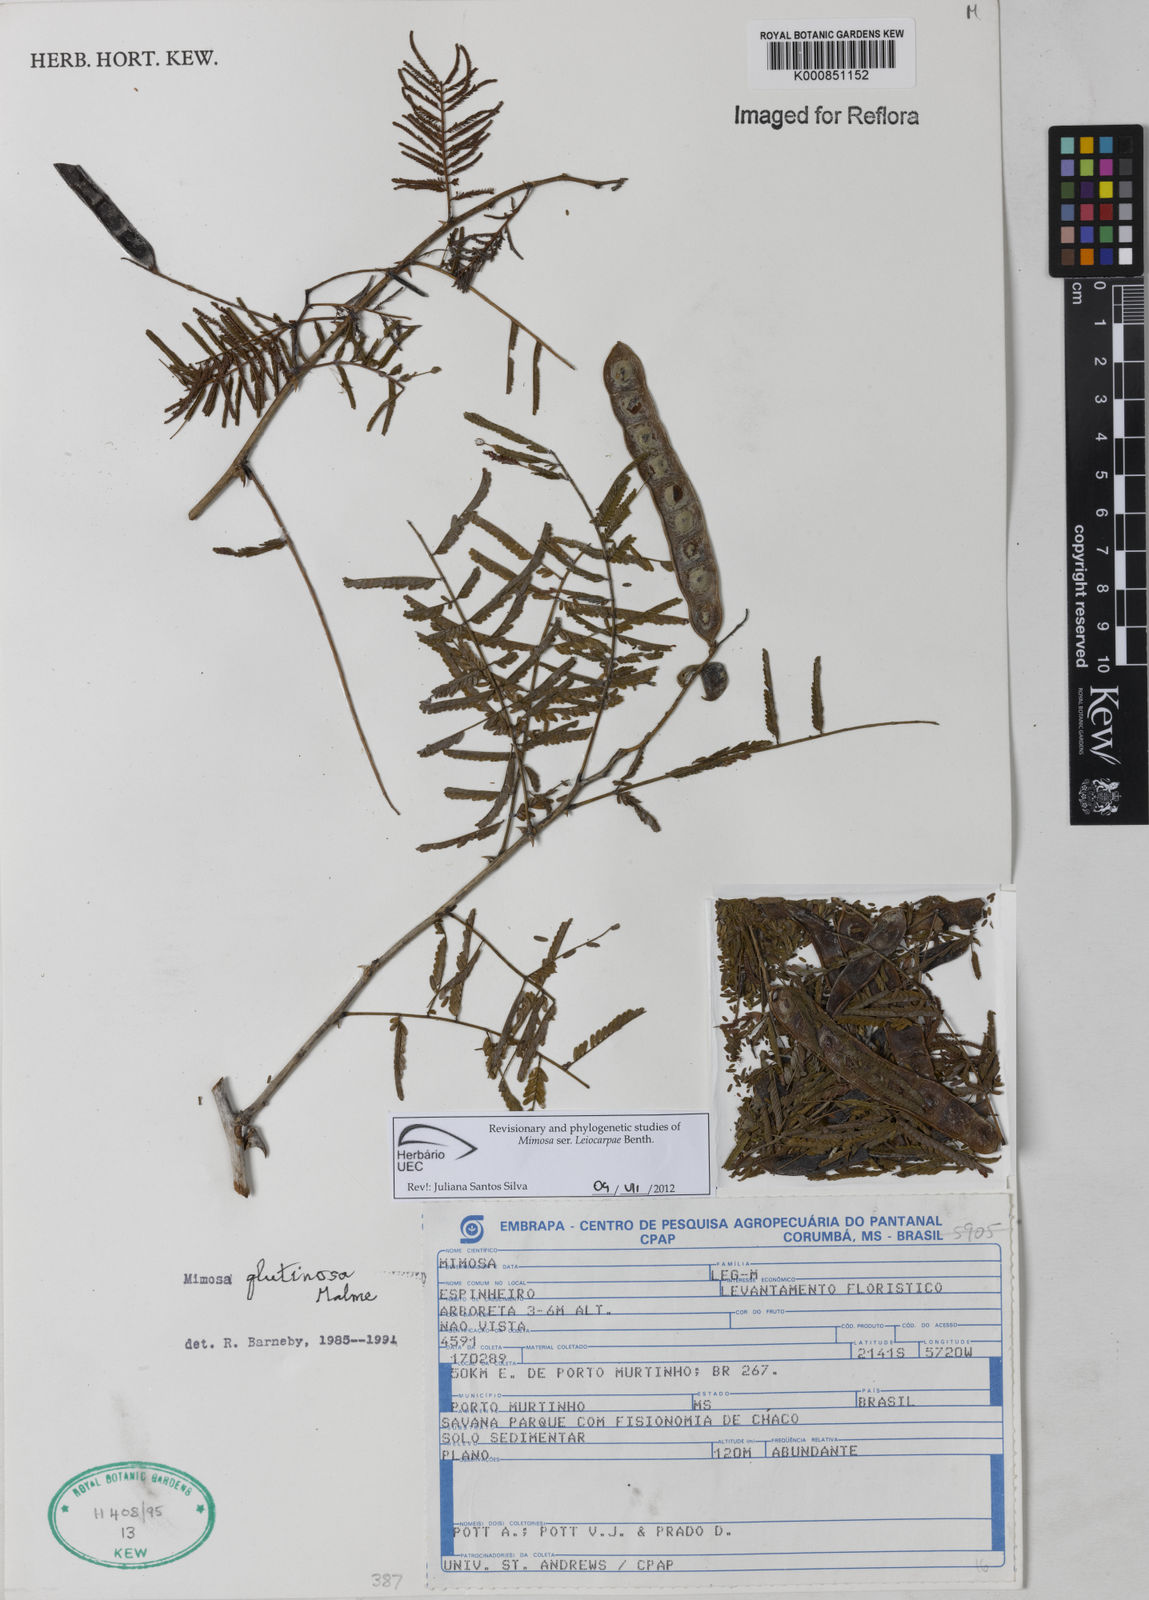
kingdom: Plantae
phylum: Tracheophyta
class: Magnoliopsida
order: Fabales
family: Fabaceae
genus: Mimosa
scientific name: Mimosa glutinosa
